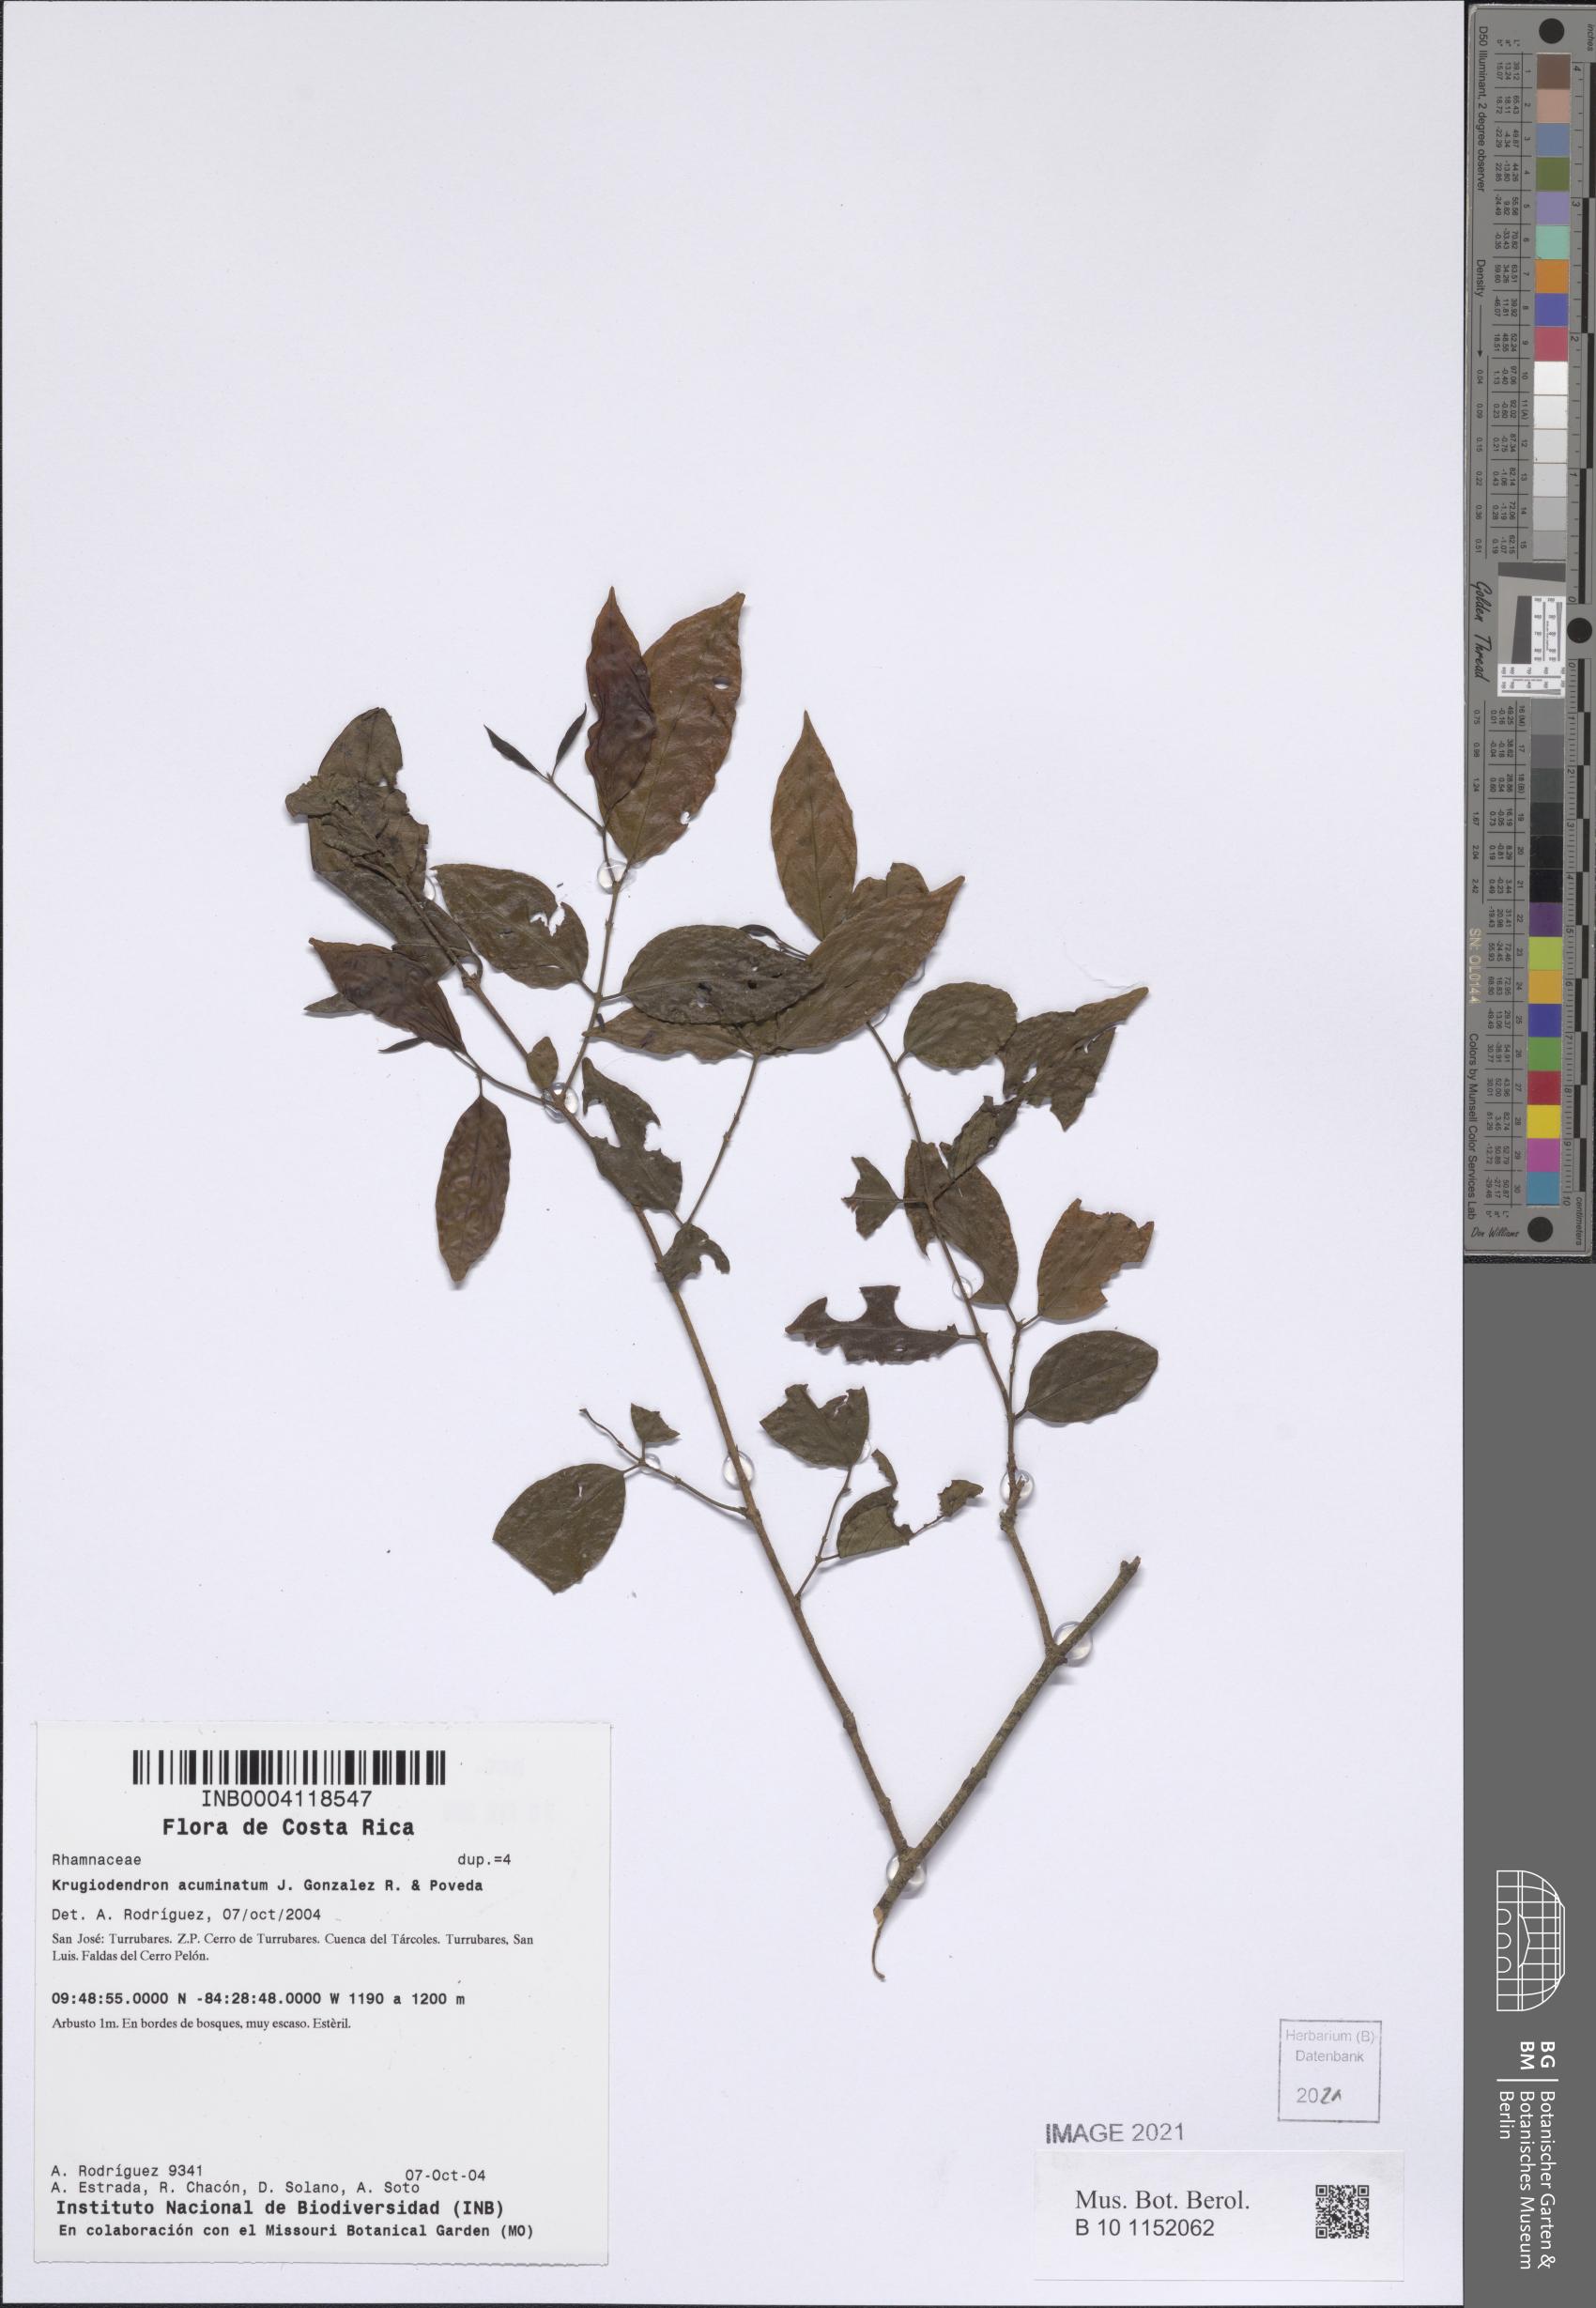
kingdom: Plantae
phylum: Tracheophyta
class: Magnoliopsida
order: Rosales
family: Rhamnaceae
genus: Krugiodendron
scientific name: Krugiodendron acuminatum
